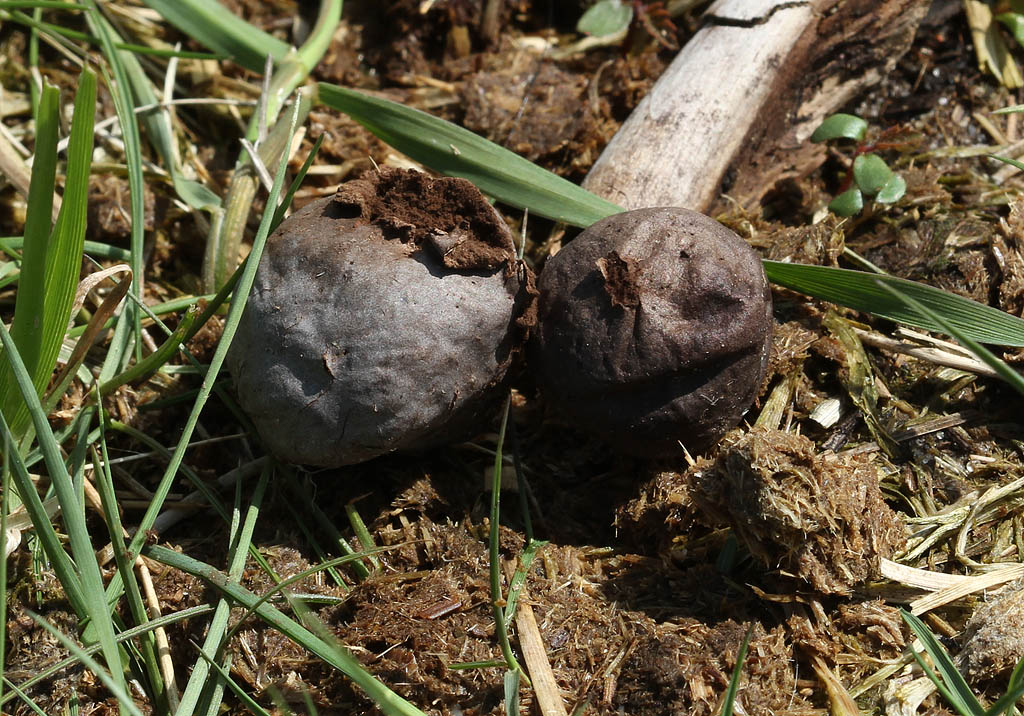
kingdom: Fungi
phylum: Basidiomycota
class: Agaricomycetes
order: Agaricales
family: Lycoperdaceae
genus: Bovista
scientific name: Bovista plumbea
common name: blygrå bovist
